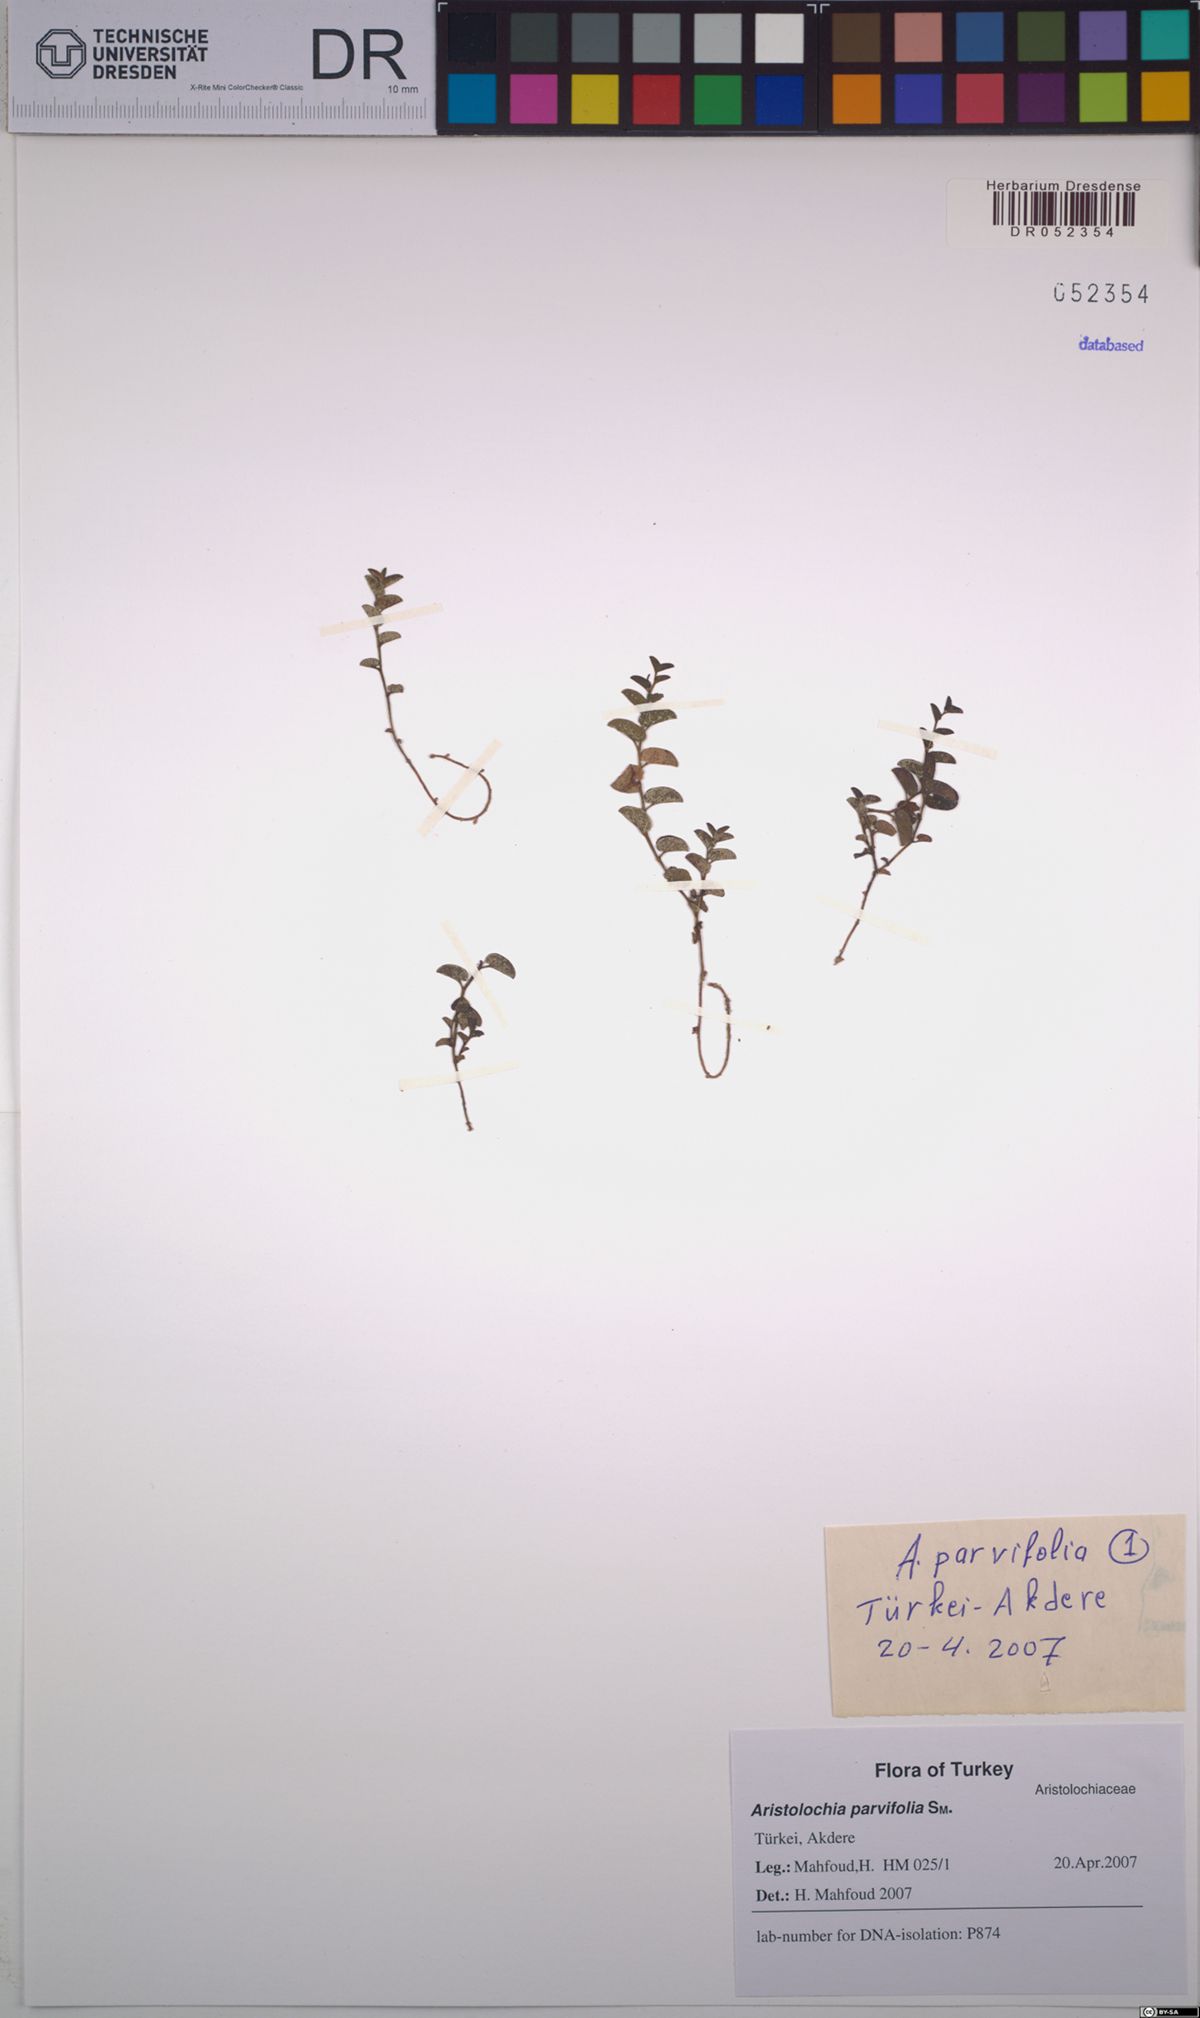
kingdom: Plantae
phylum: Tracheophyta
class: Magnoliopsida
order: Piperales
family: Aristolochiaceae
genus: Aristolochia
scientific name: Aristolochia parvifolia
